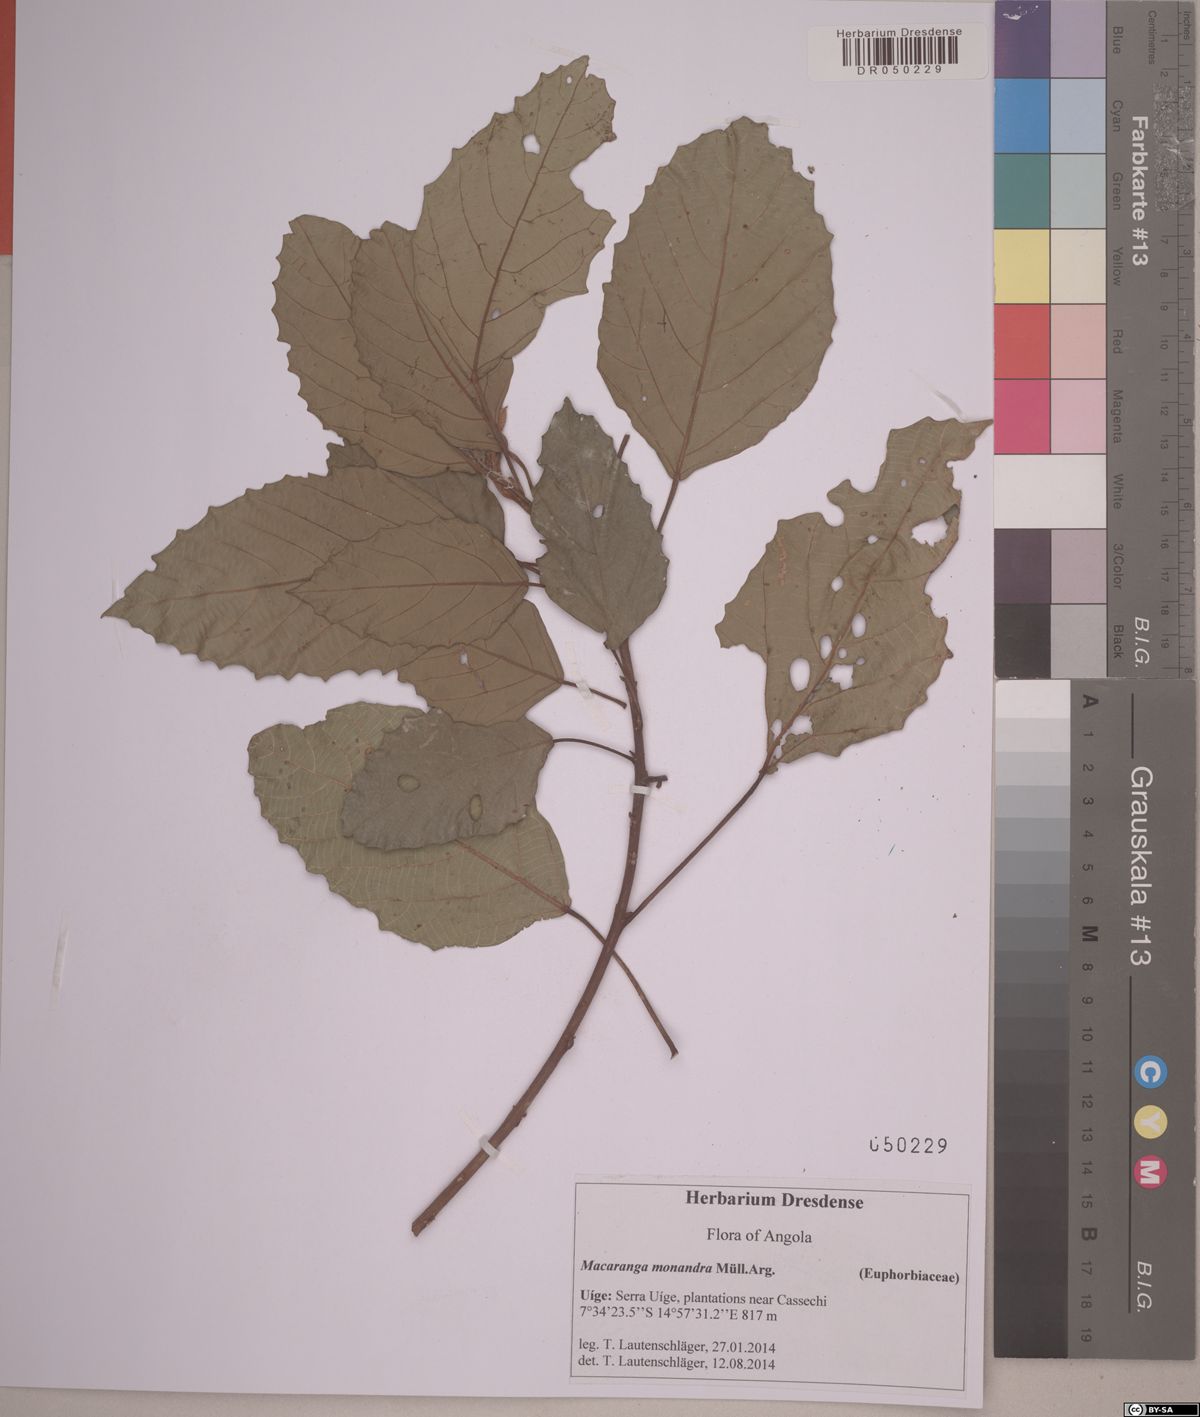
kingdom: Plantae
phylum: Tracheophyta
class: Magnoliopsida
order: Malpighiales
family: Euphorbiaceae
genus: Macaranga
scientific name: Macaranga monandra
